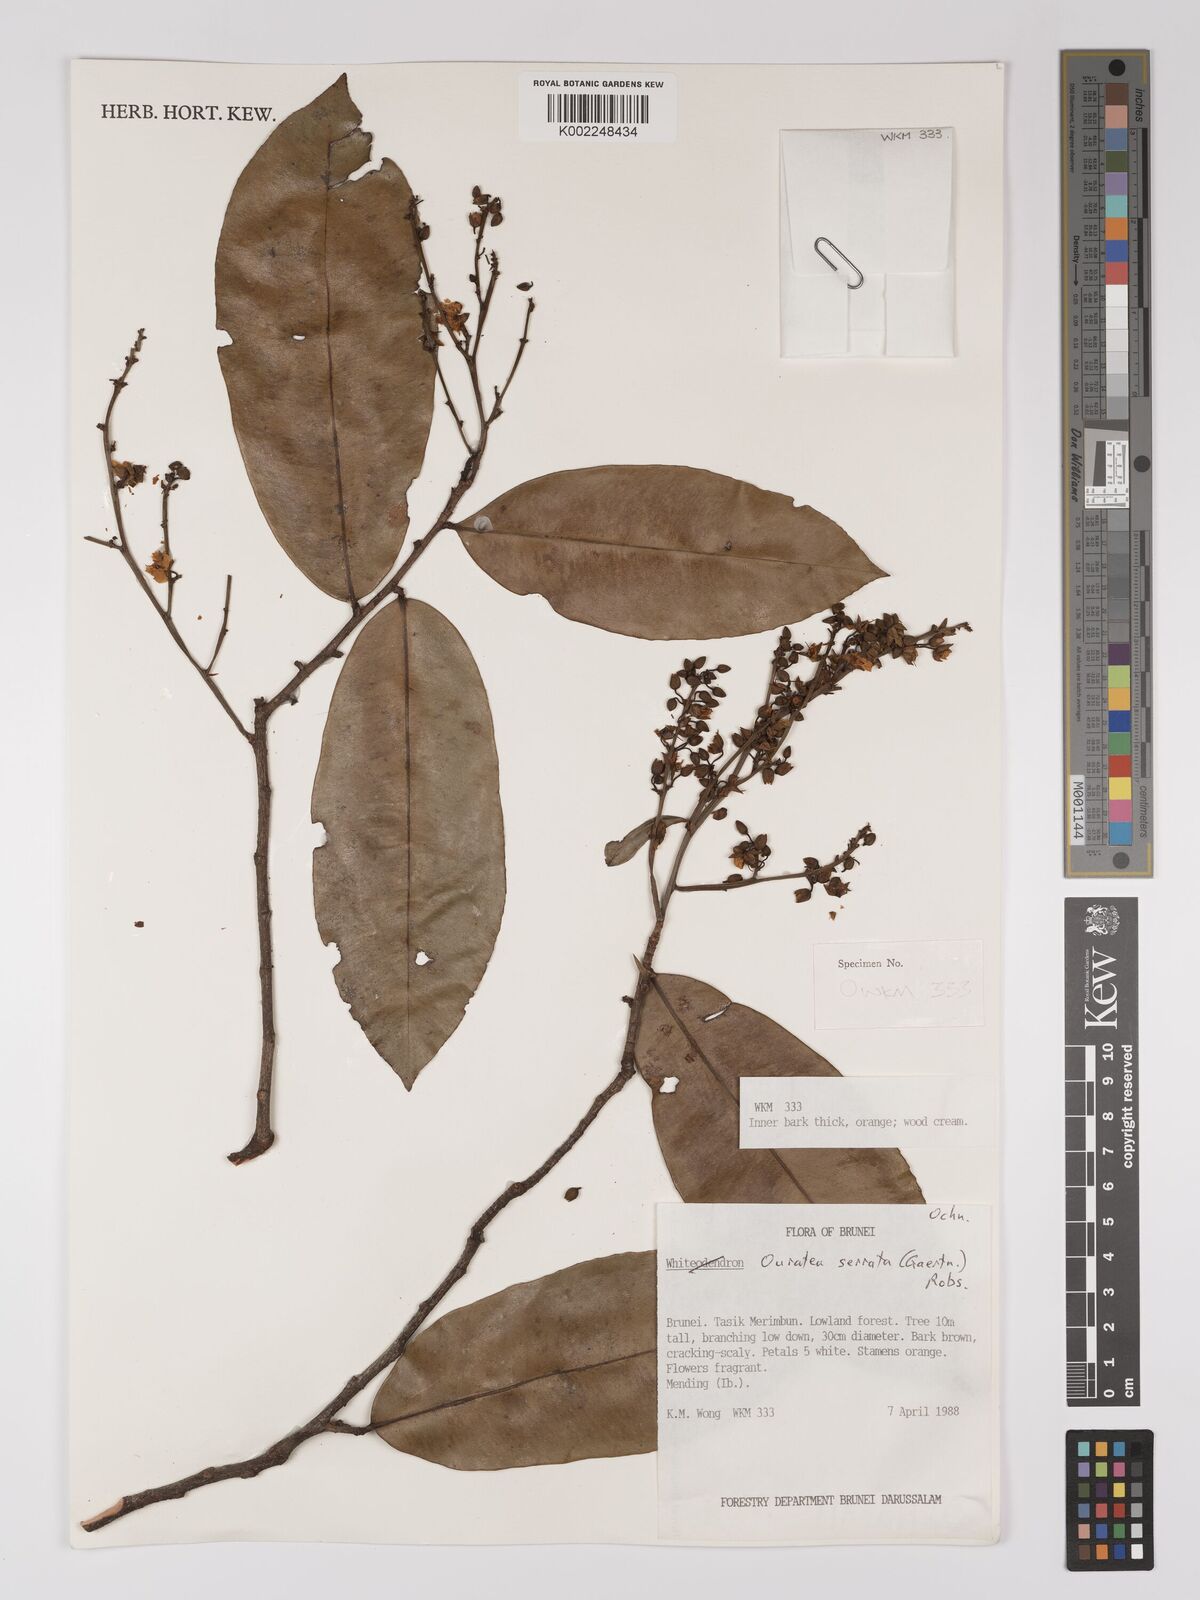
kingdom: Plantae
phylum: Tracheophyta
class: Magnoliopsida
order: Malpighiales
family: Ochnaceae
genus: Gomphia
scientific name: Gomphia serrata
